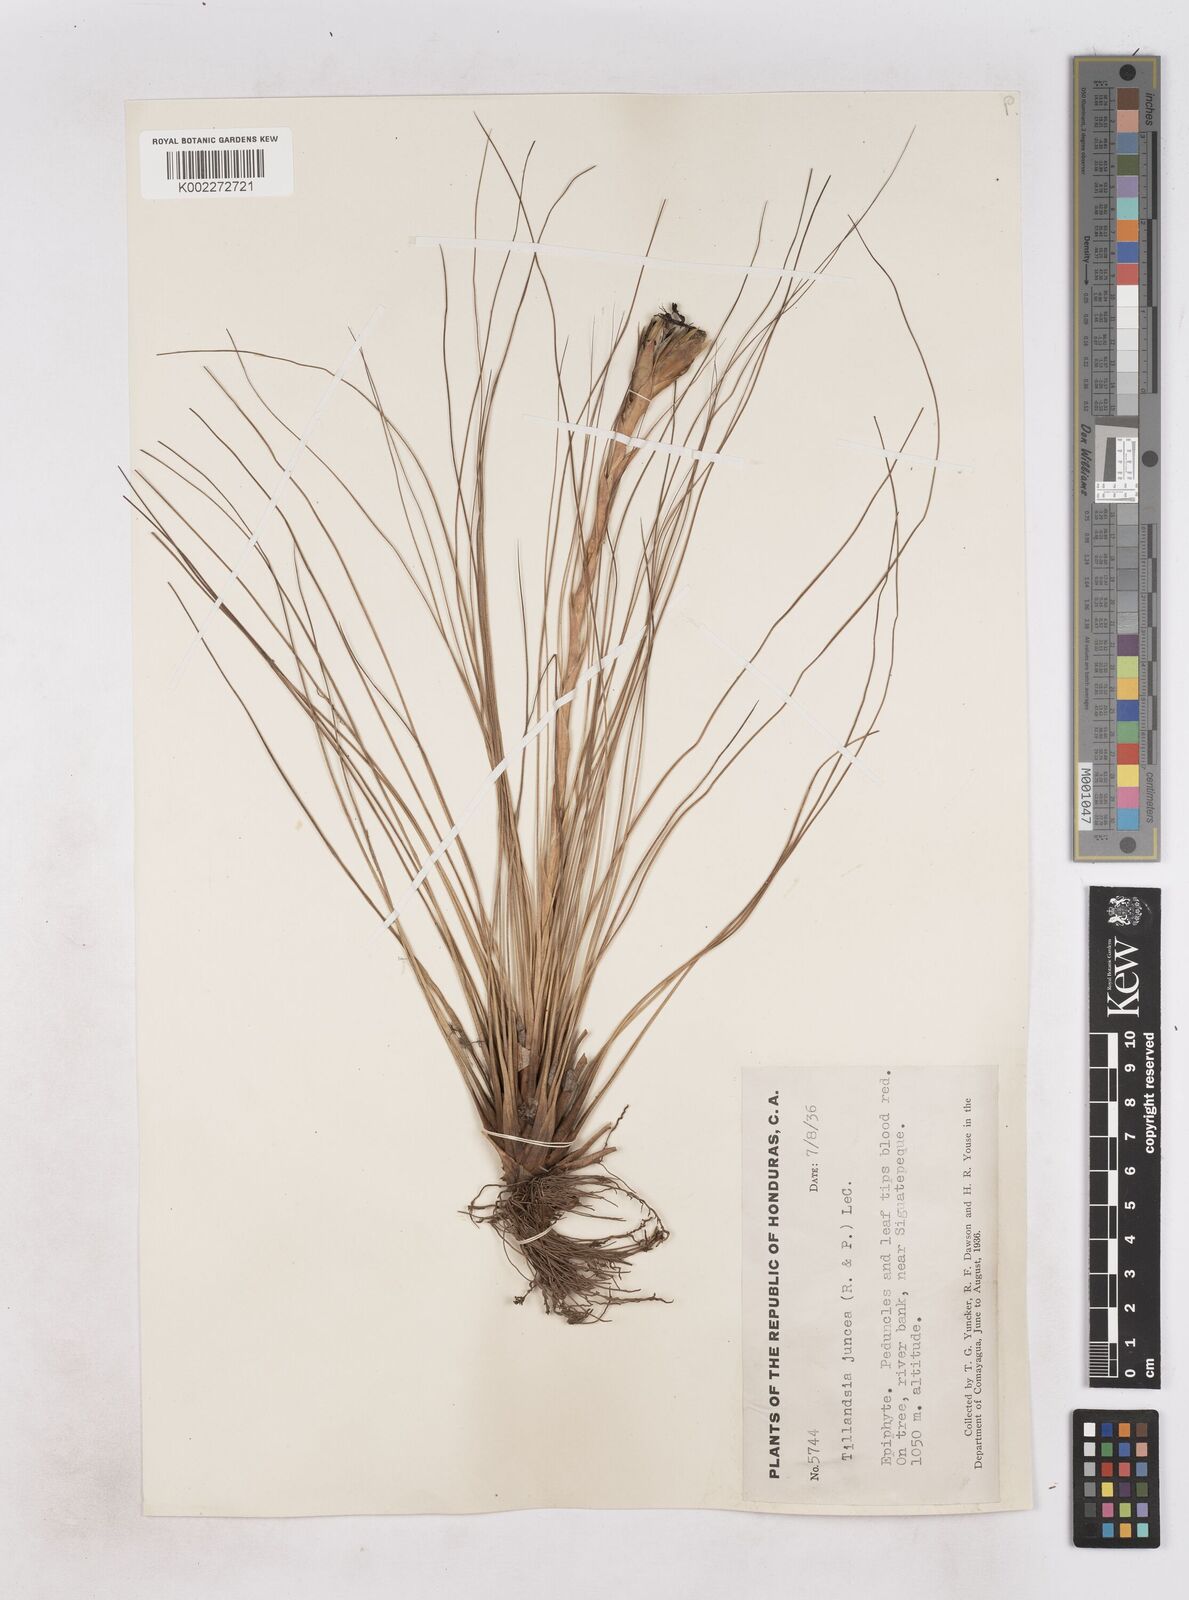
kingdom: Plantae
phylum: Tracheophyta
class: Liliopsida
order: Poales
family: Bromeliaceae
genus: Tillandsia
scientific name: Tillandsia
